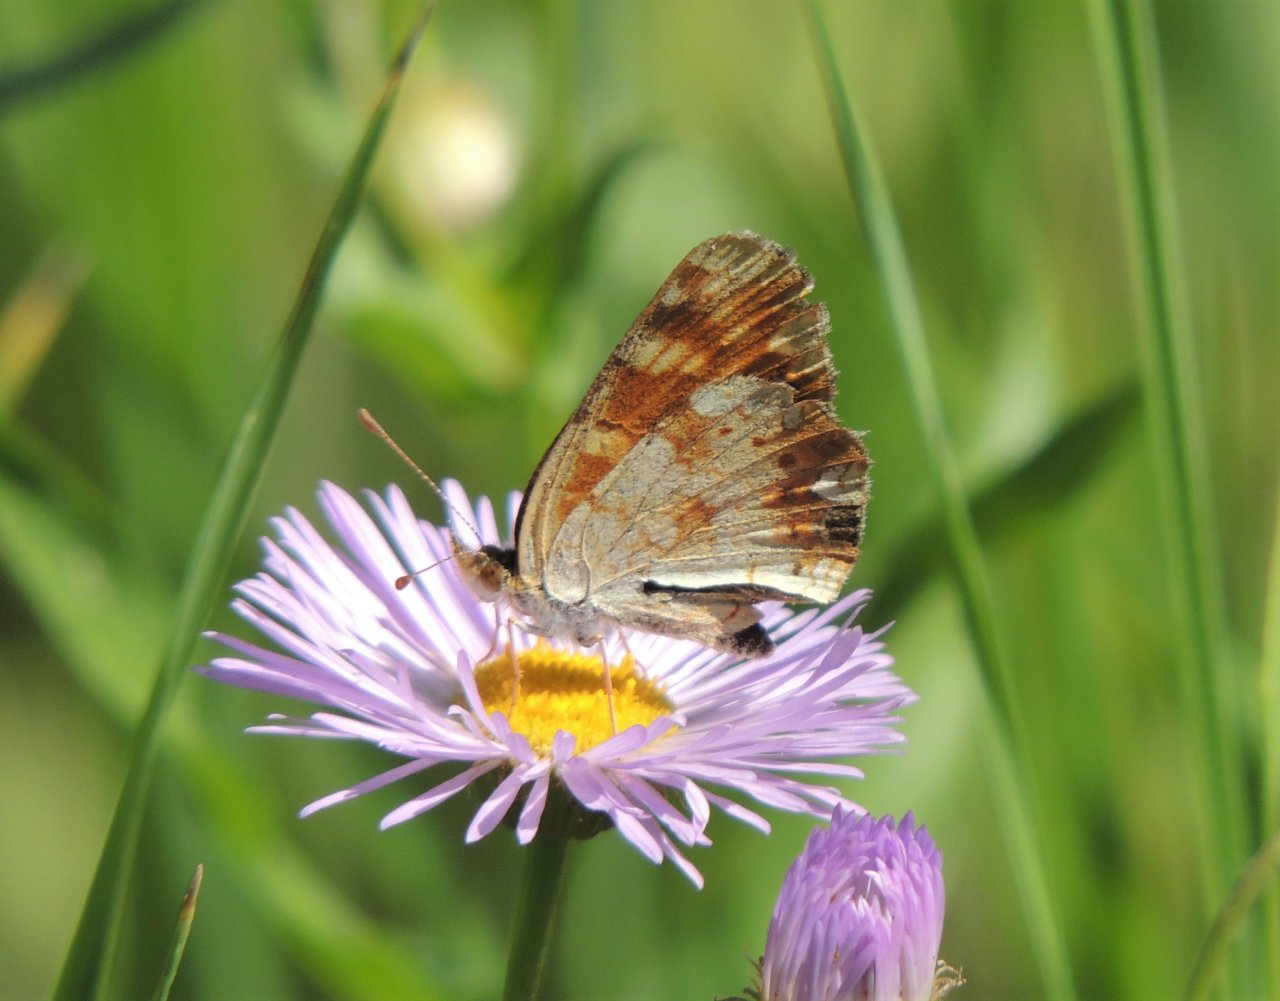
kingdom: Animalia
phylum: Arthropoda
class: Insecta
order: Lepidoptera
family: Nymphalidae
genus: Phyciodes
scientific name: Phyciodes tharos
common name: Field Crescent
